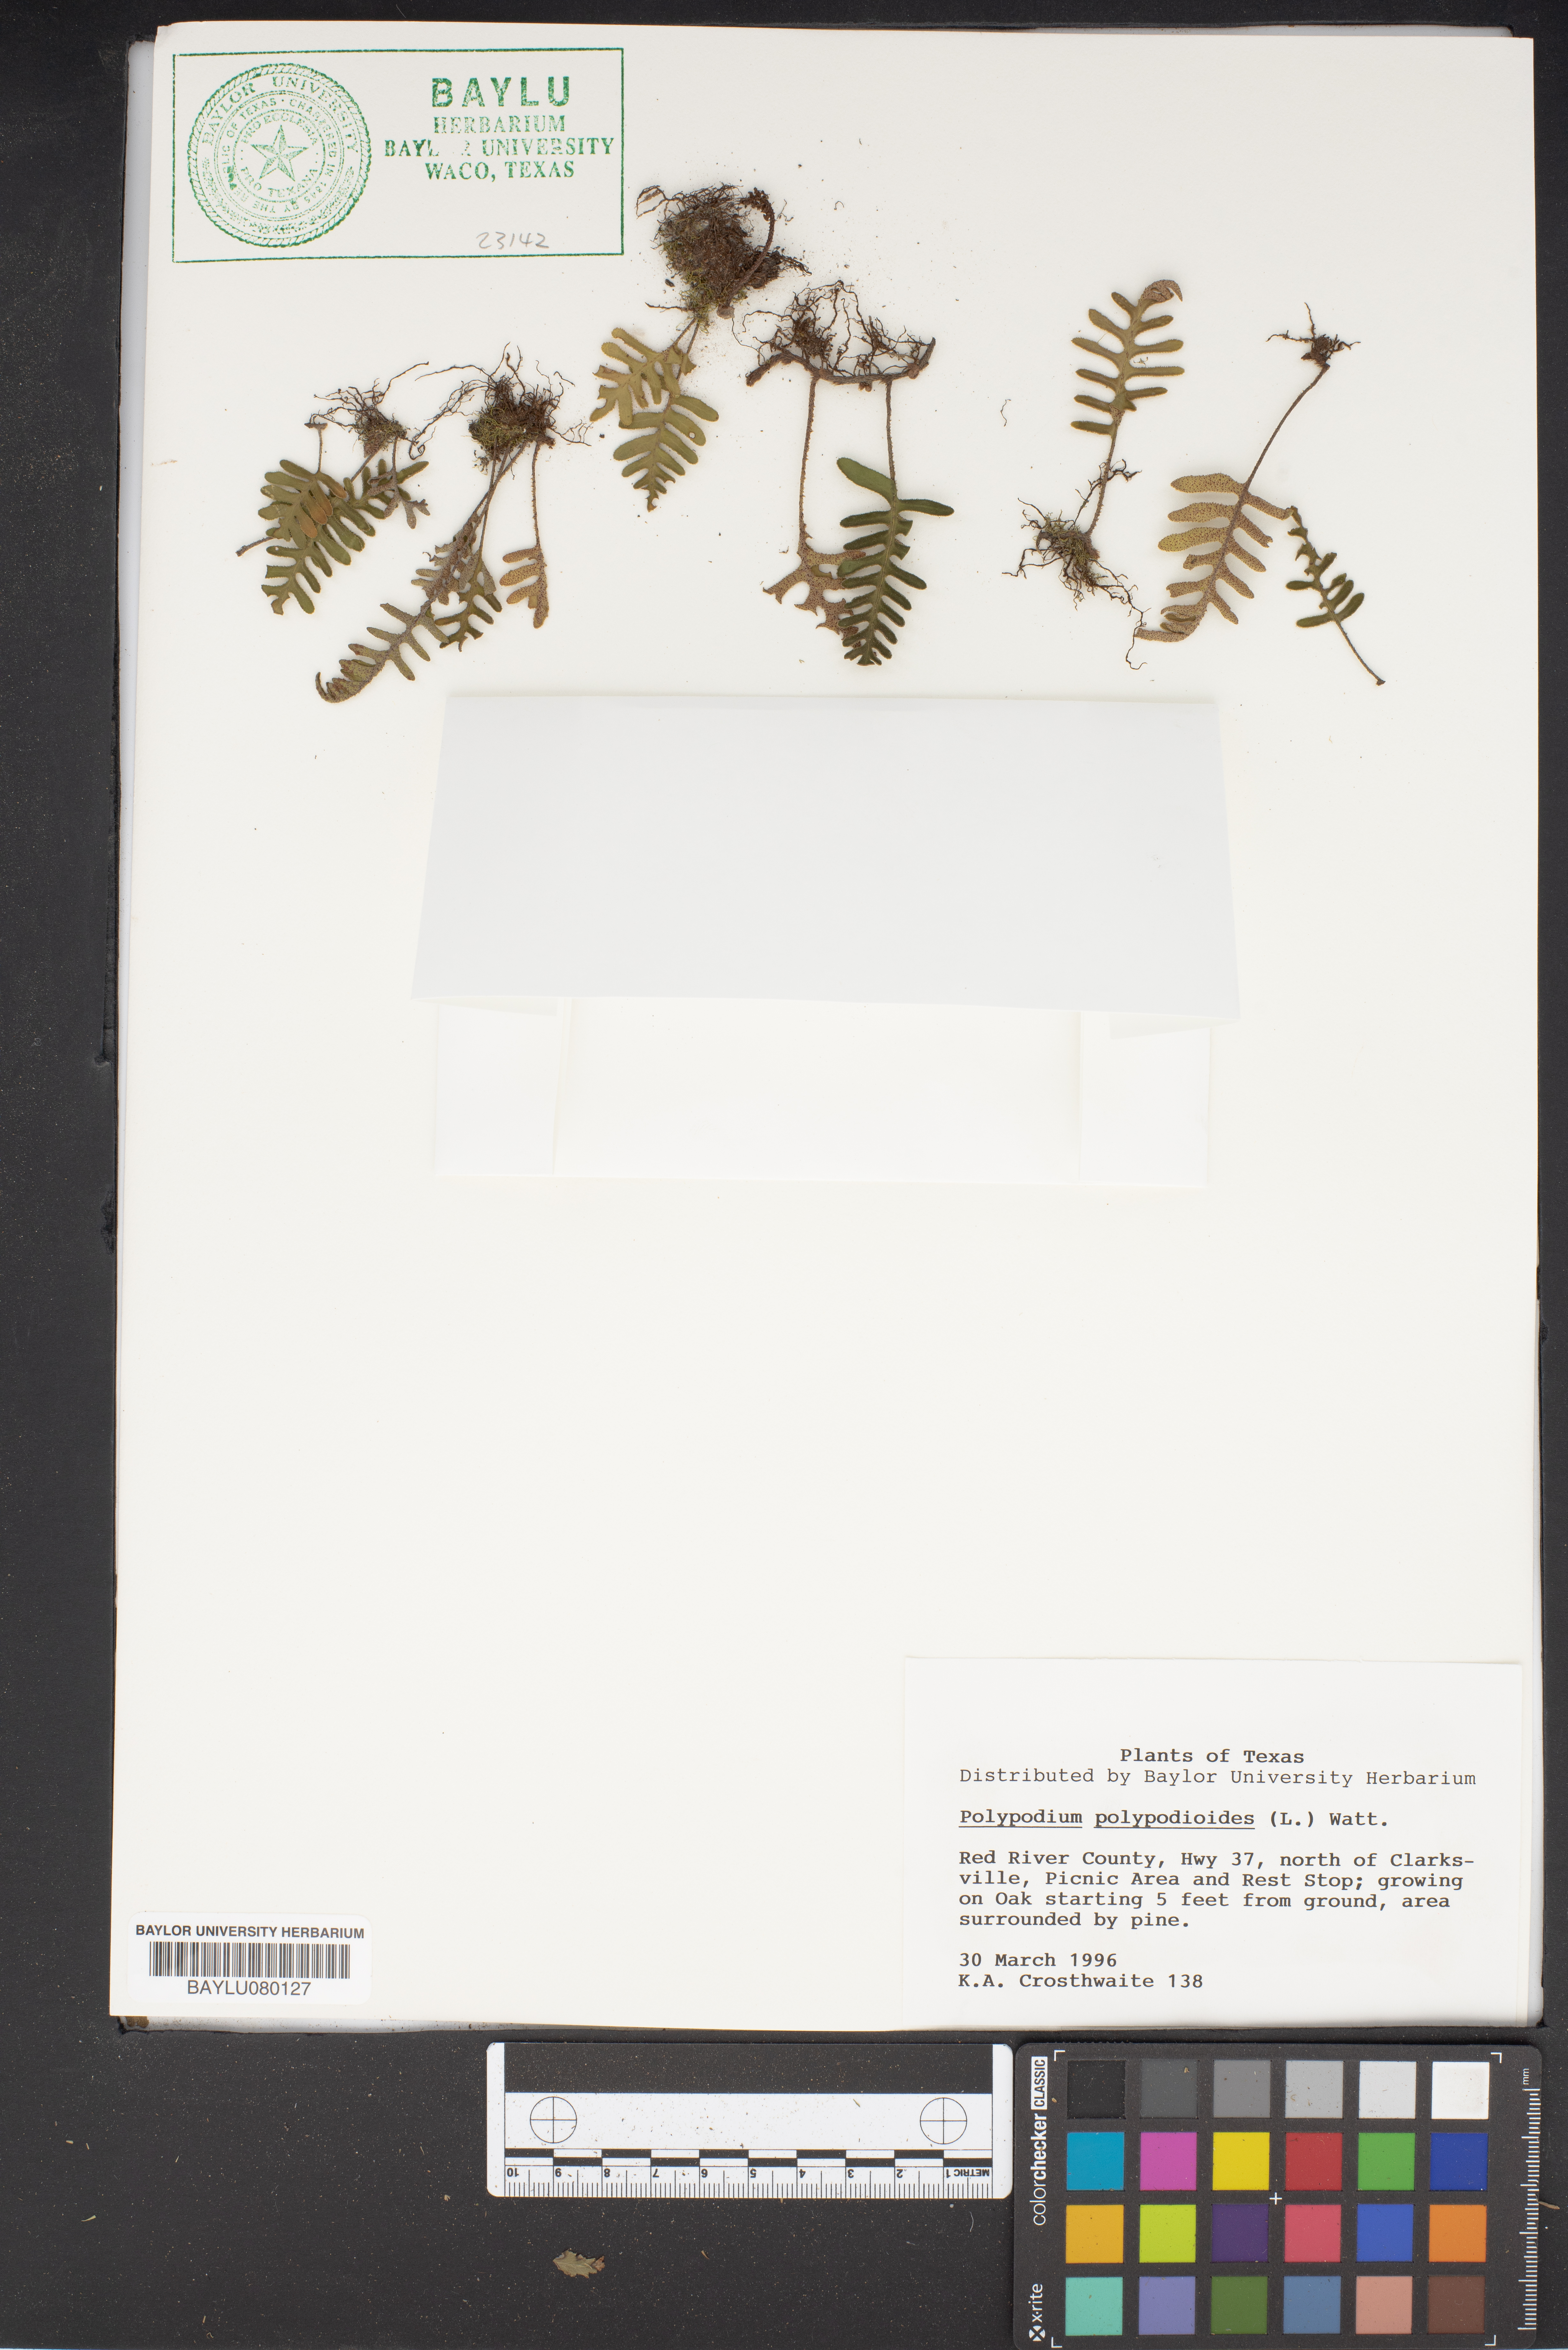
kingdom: Plantae
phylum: Tracheophyta
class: Polypodiopsida
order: Polypodiales
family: Polypodiaceae
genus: Pleopeltis
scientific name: Pleopeltis polypodioides
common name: Resurrection fern
